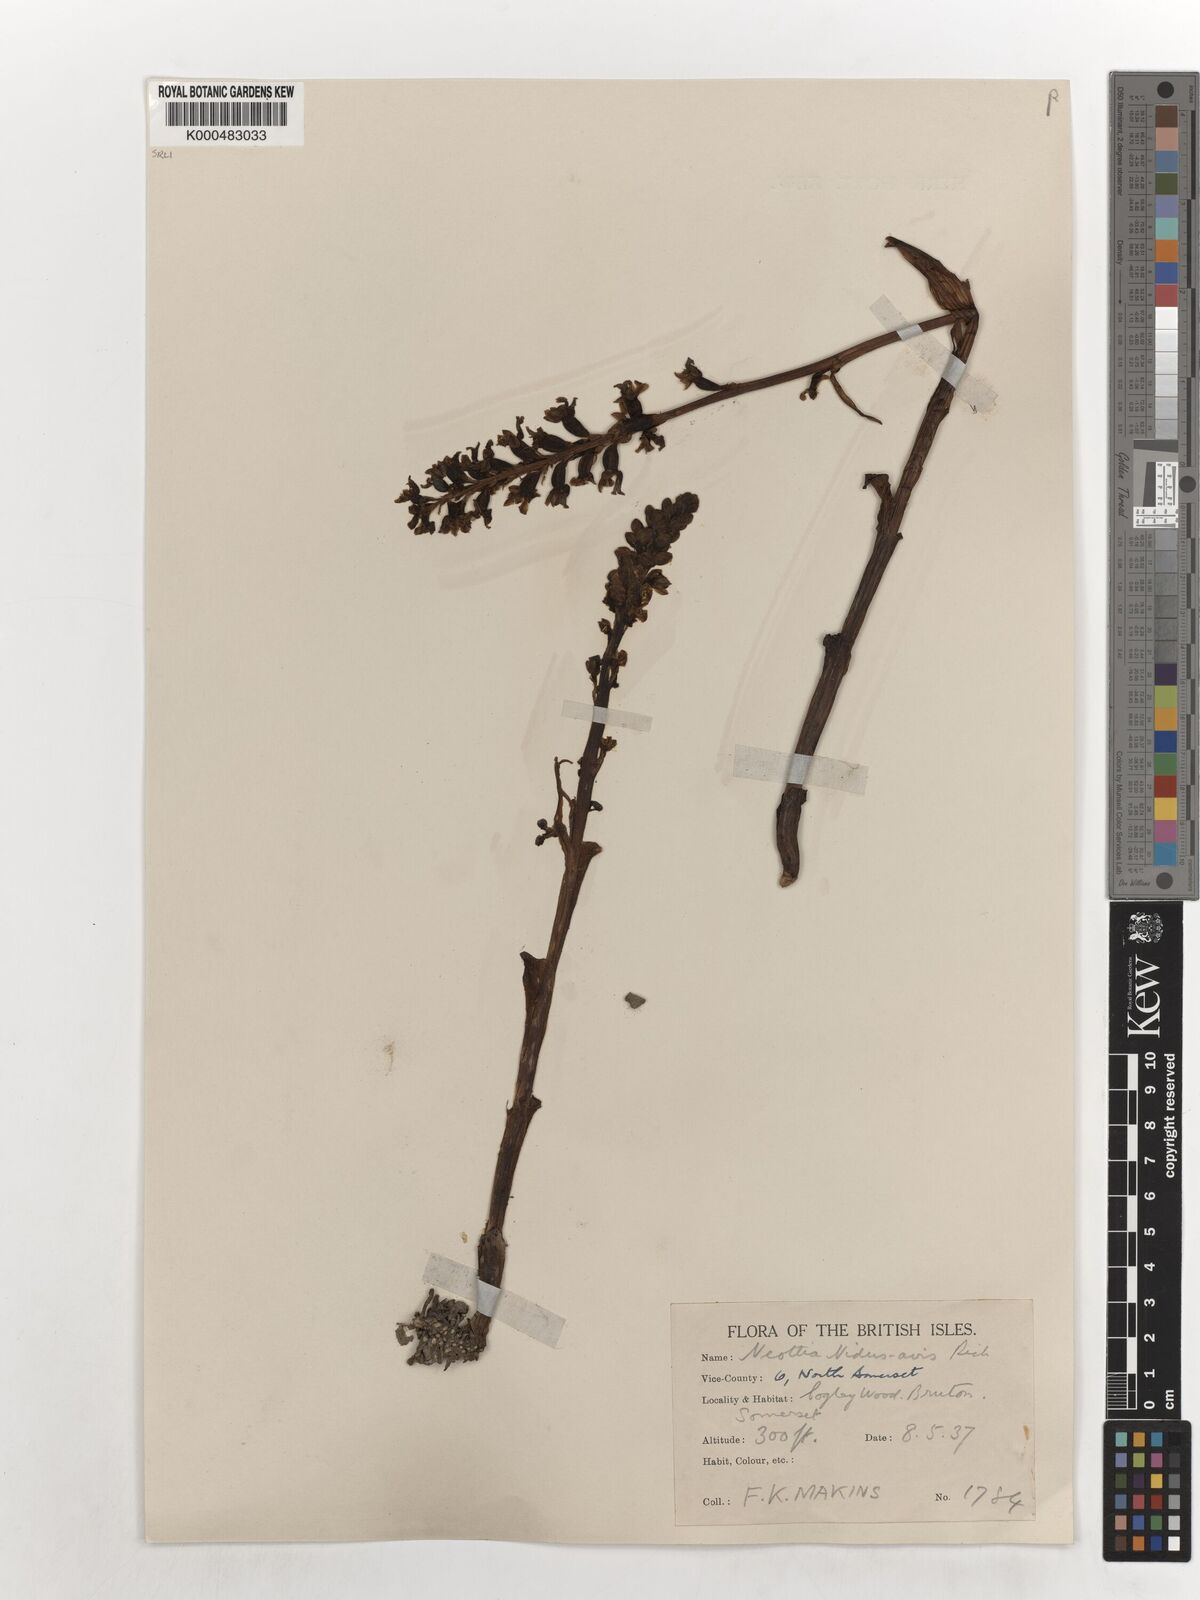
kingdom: Plantae
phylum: Tracheophyta
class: Liliopsida
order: Asparagales
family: Orchidaceae
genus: Neottia
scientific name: Neottia nidus-avis
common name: Bird's-nest orchid
